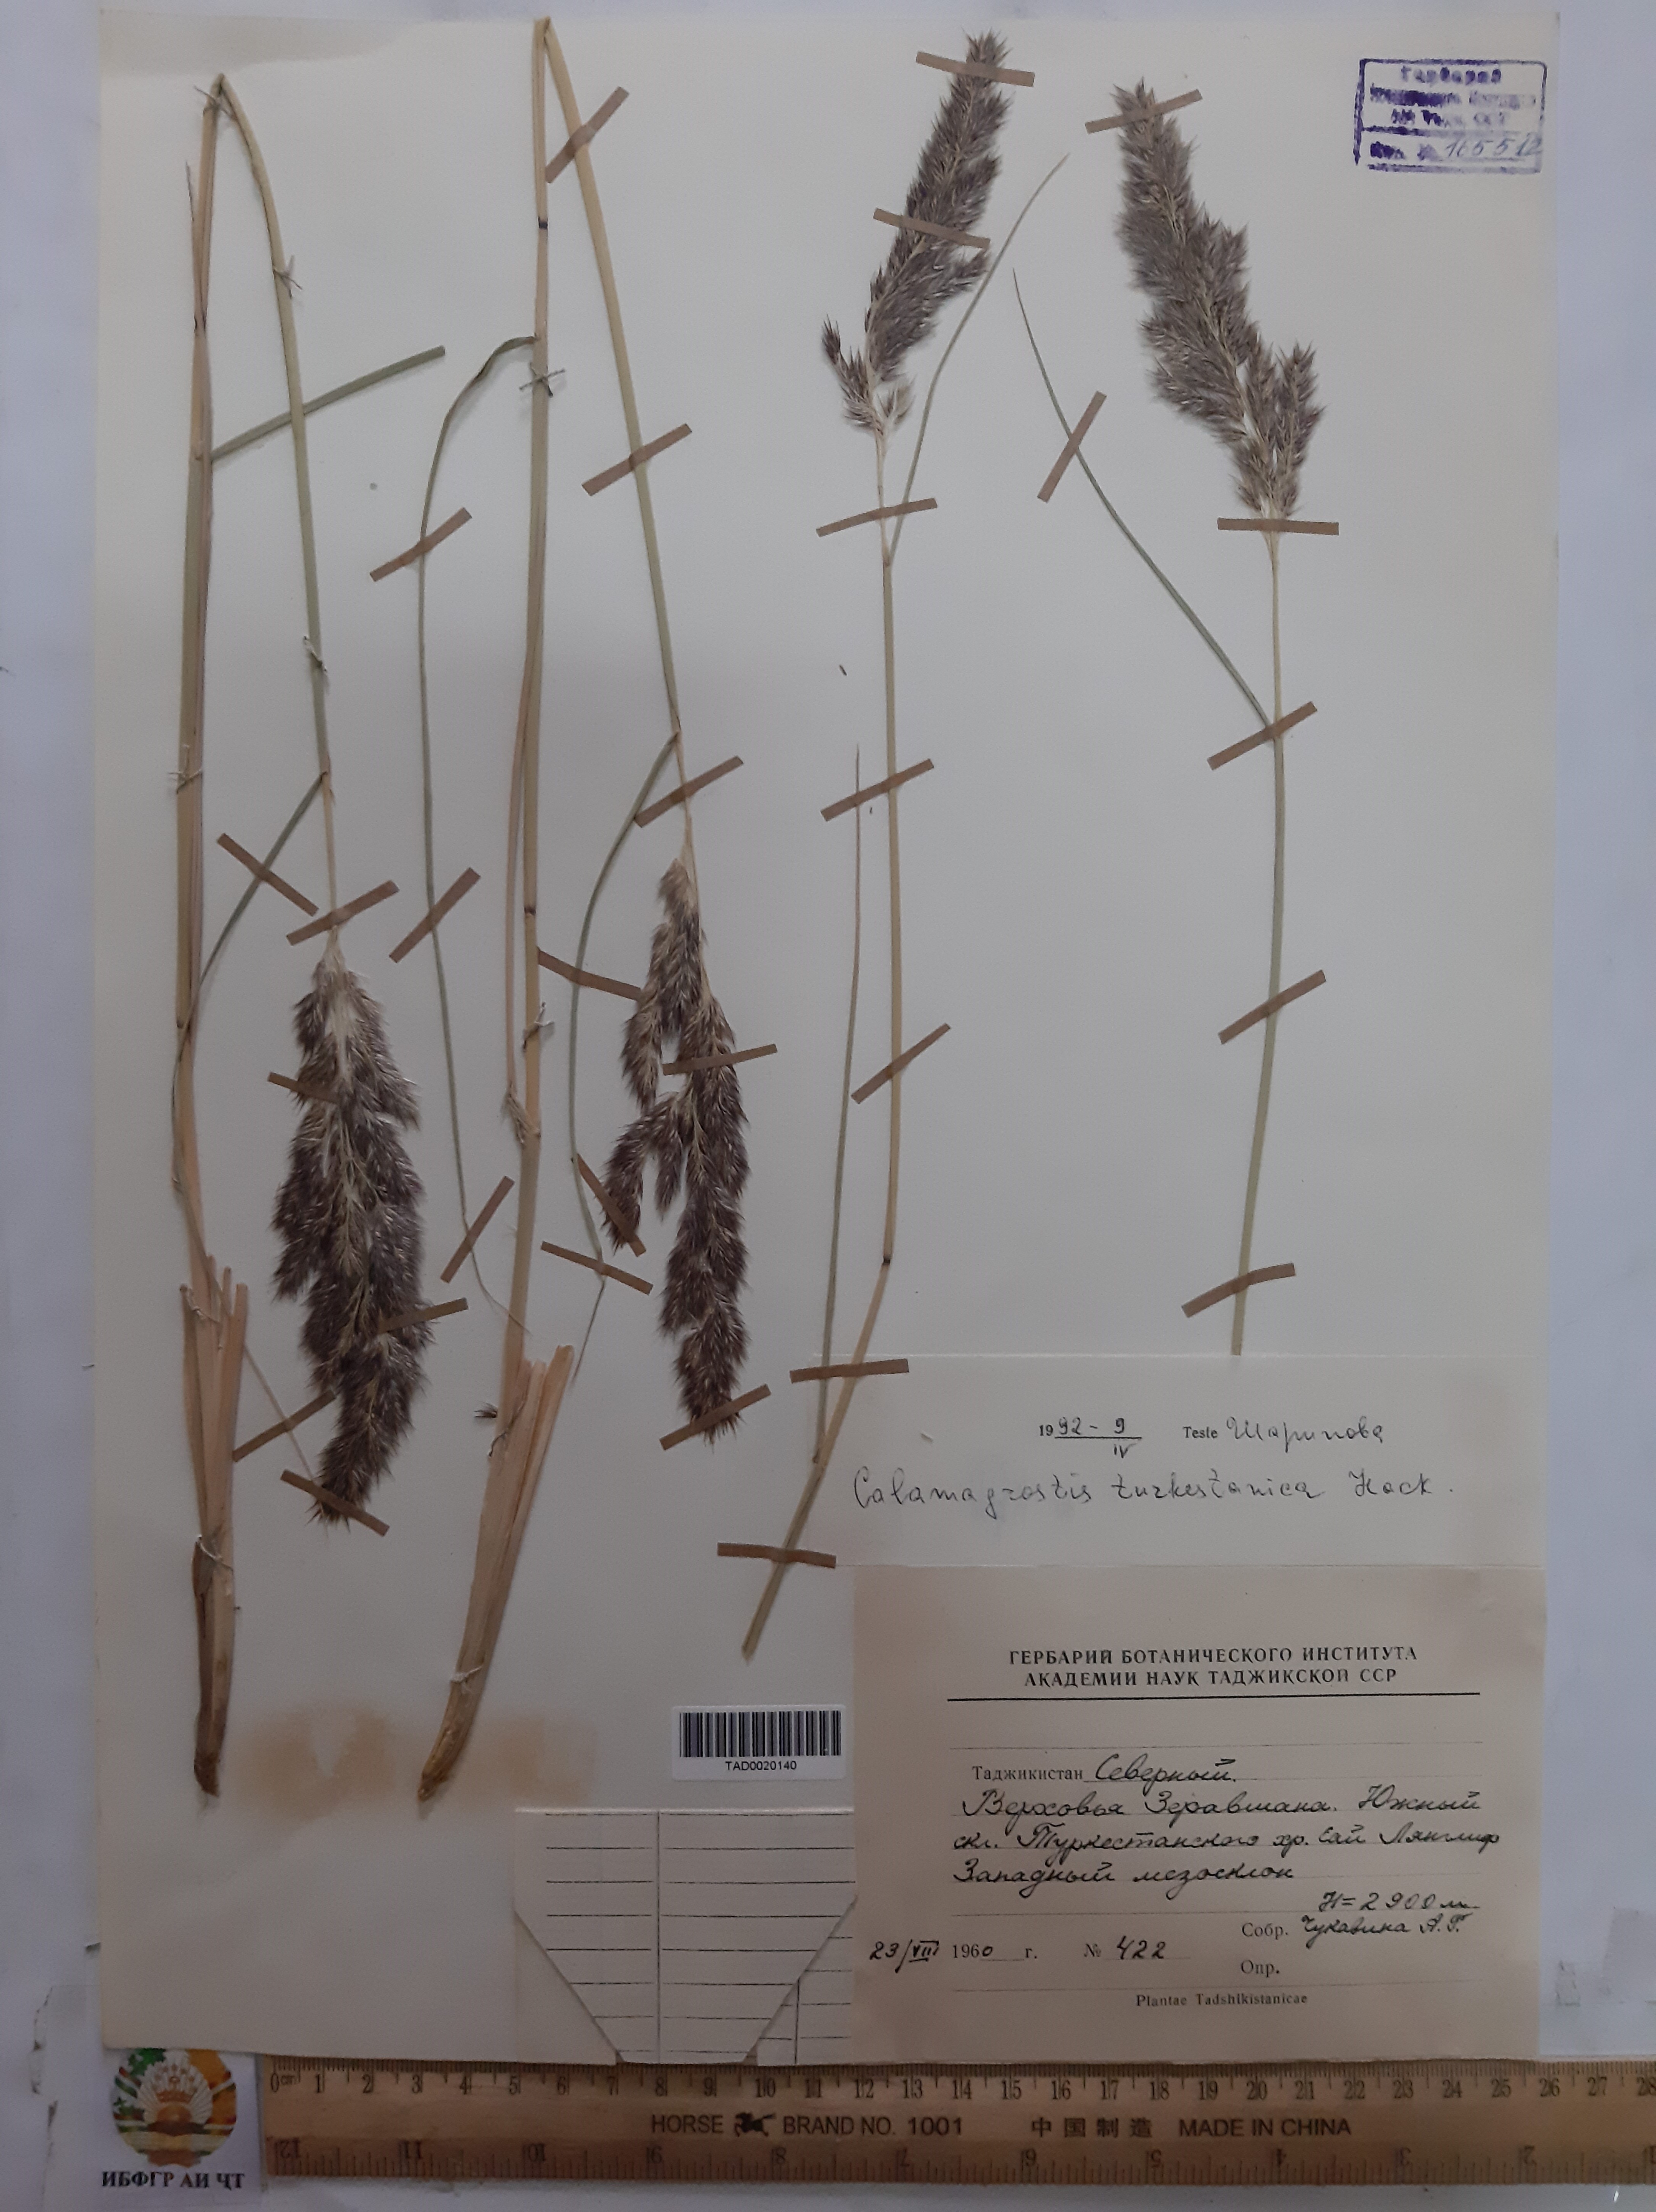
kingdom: Plantae
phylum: Tracheophyta
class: Liliopsida
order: Poales
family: Poaceae
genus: Calamagrostis
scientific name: Calamagrostis turkestanica
